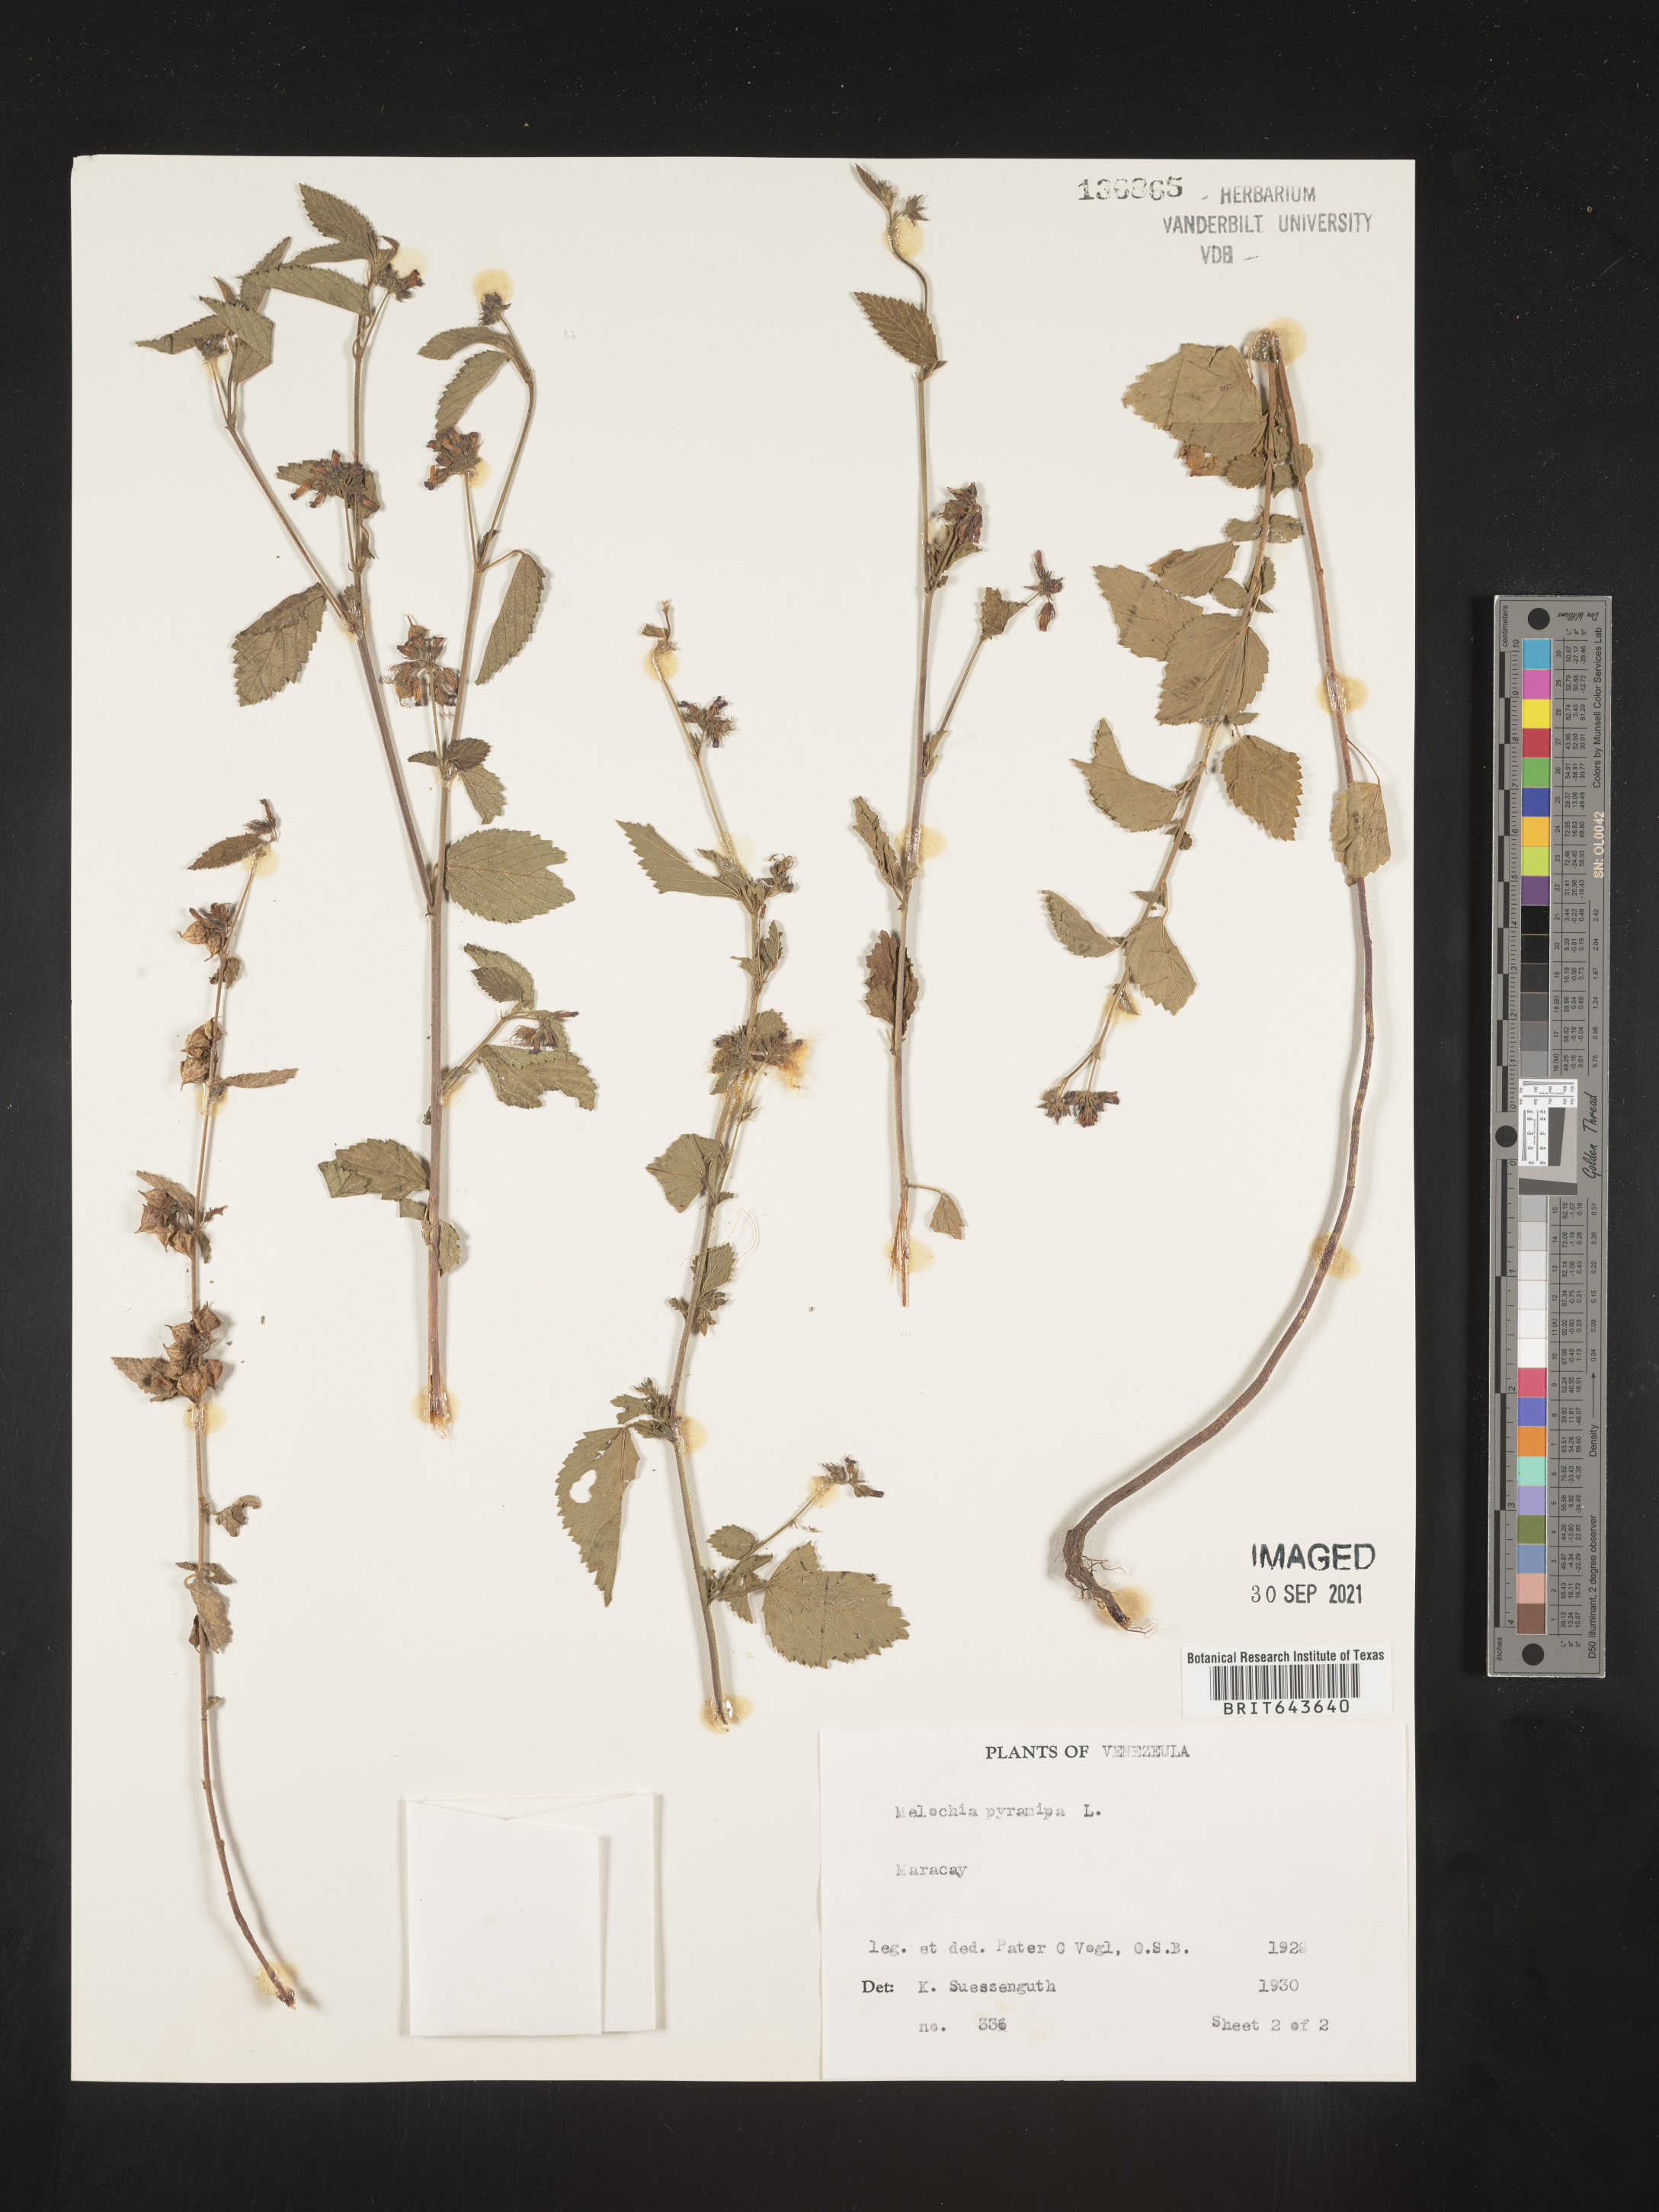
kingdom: Plantae
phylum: Tracheophyta
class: Magnoliopsida
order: Malvales
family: Malvaceae
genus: Melochia
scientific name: Melochia
